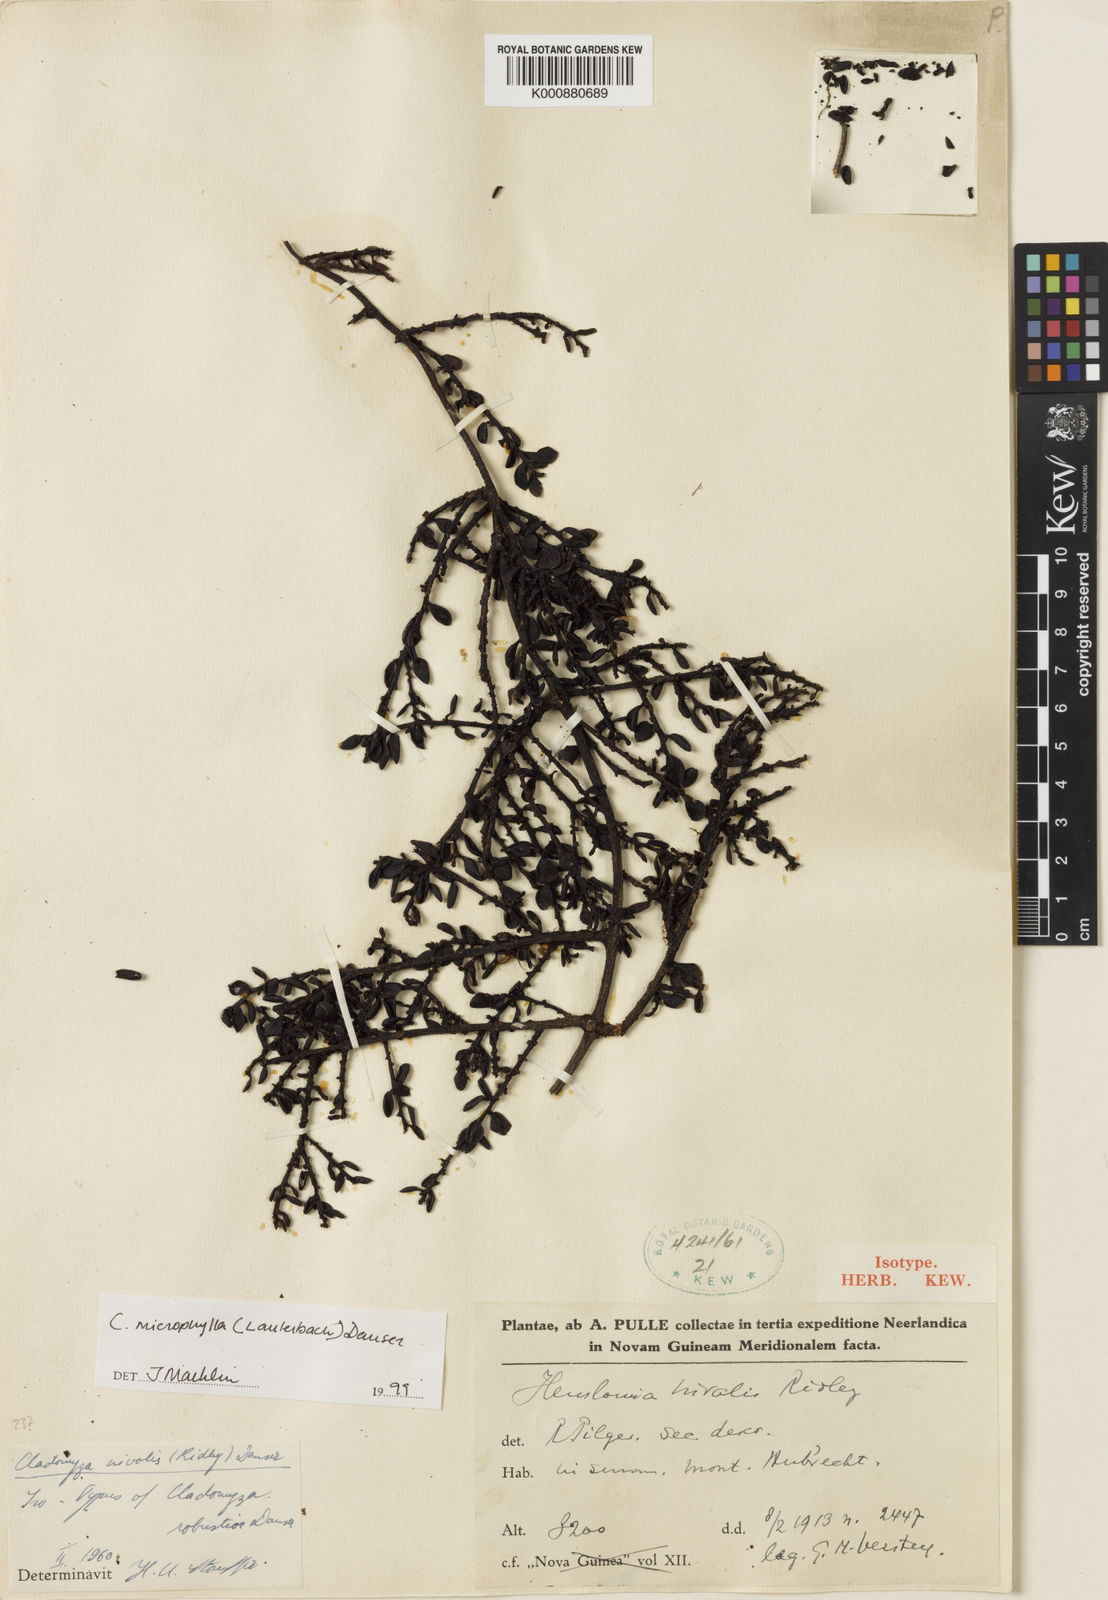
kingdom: Plantae
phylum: Tracheophyta
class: Magnoliopsida
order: Santalales
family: Amphorogynaceae
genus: Cladomyza
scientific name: Cladomyza microphylla
